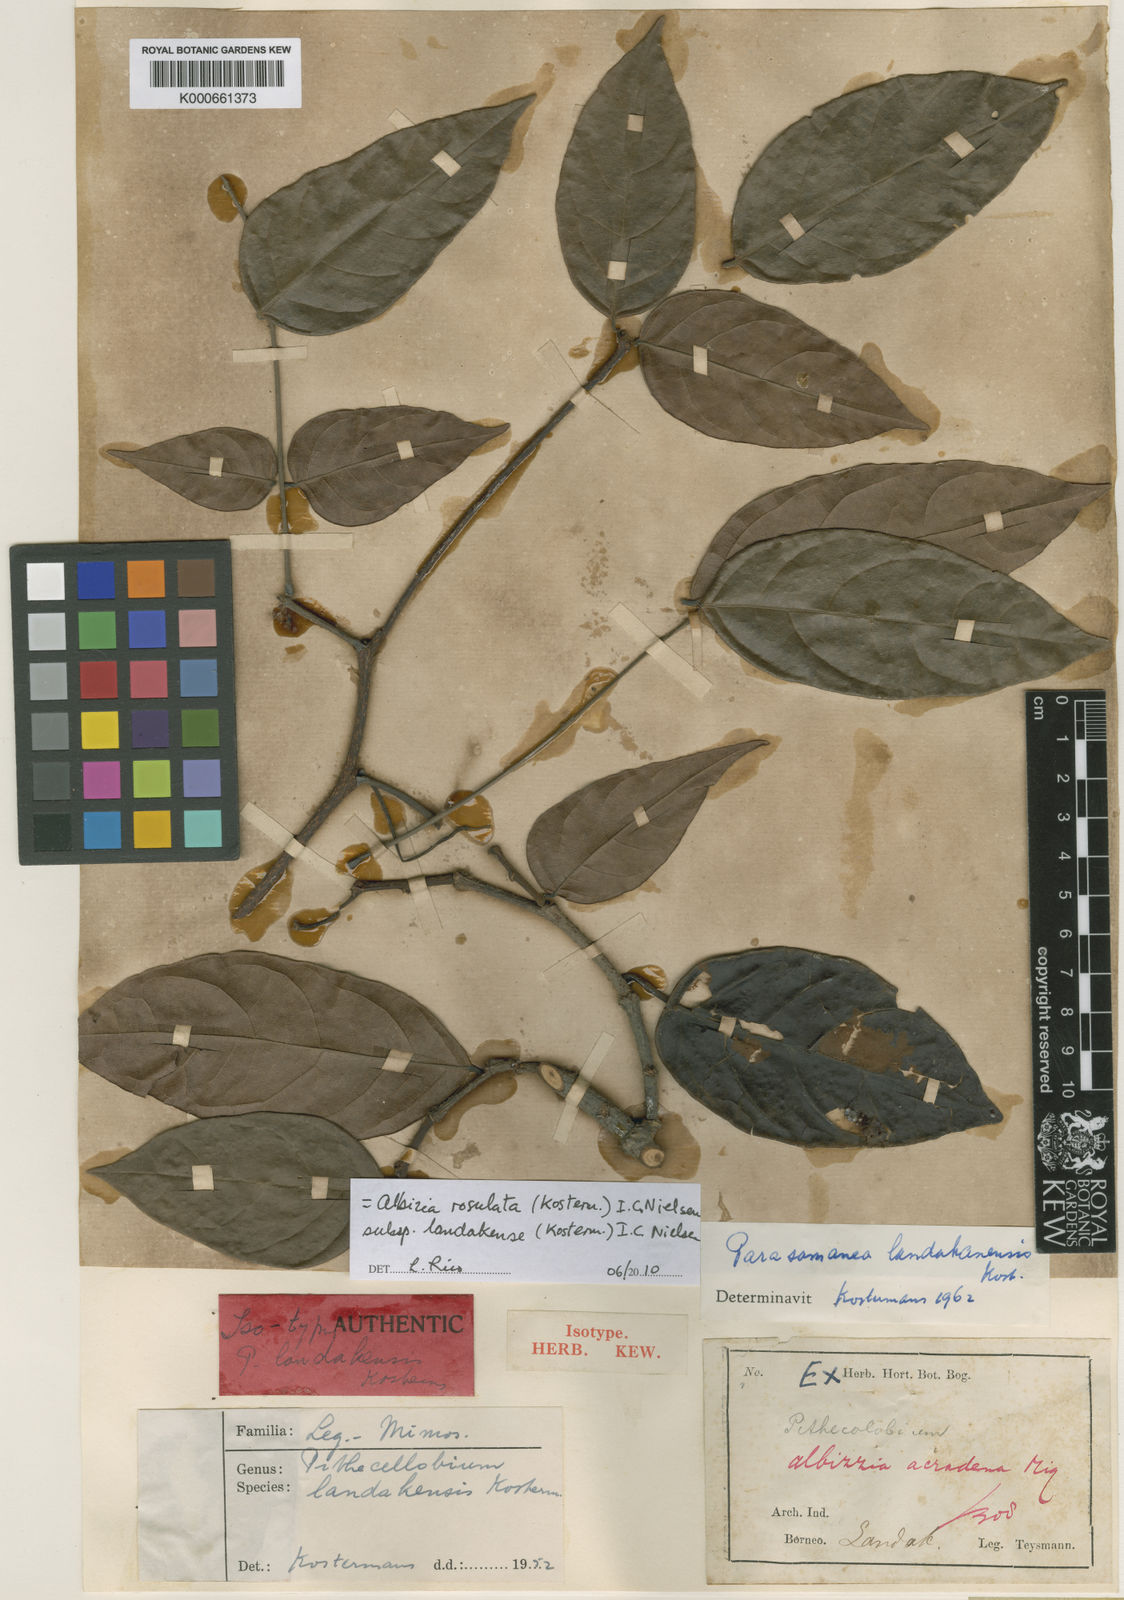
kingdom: Plantae
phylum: Tracheophyta
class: Magnoliopsida
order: Fabales
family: Fabaceae
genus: Albizia
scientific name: Albizia rosulata
